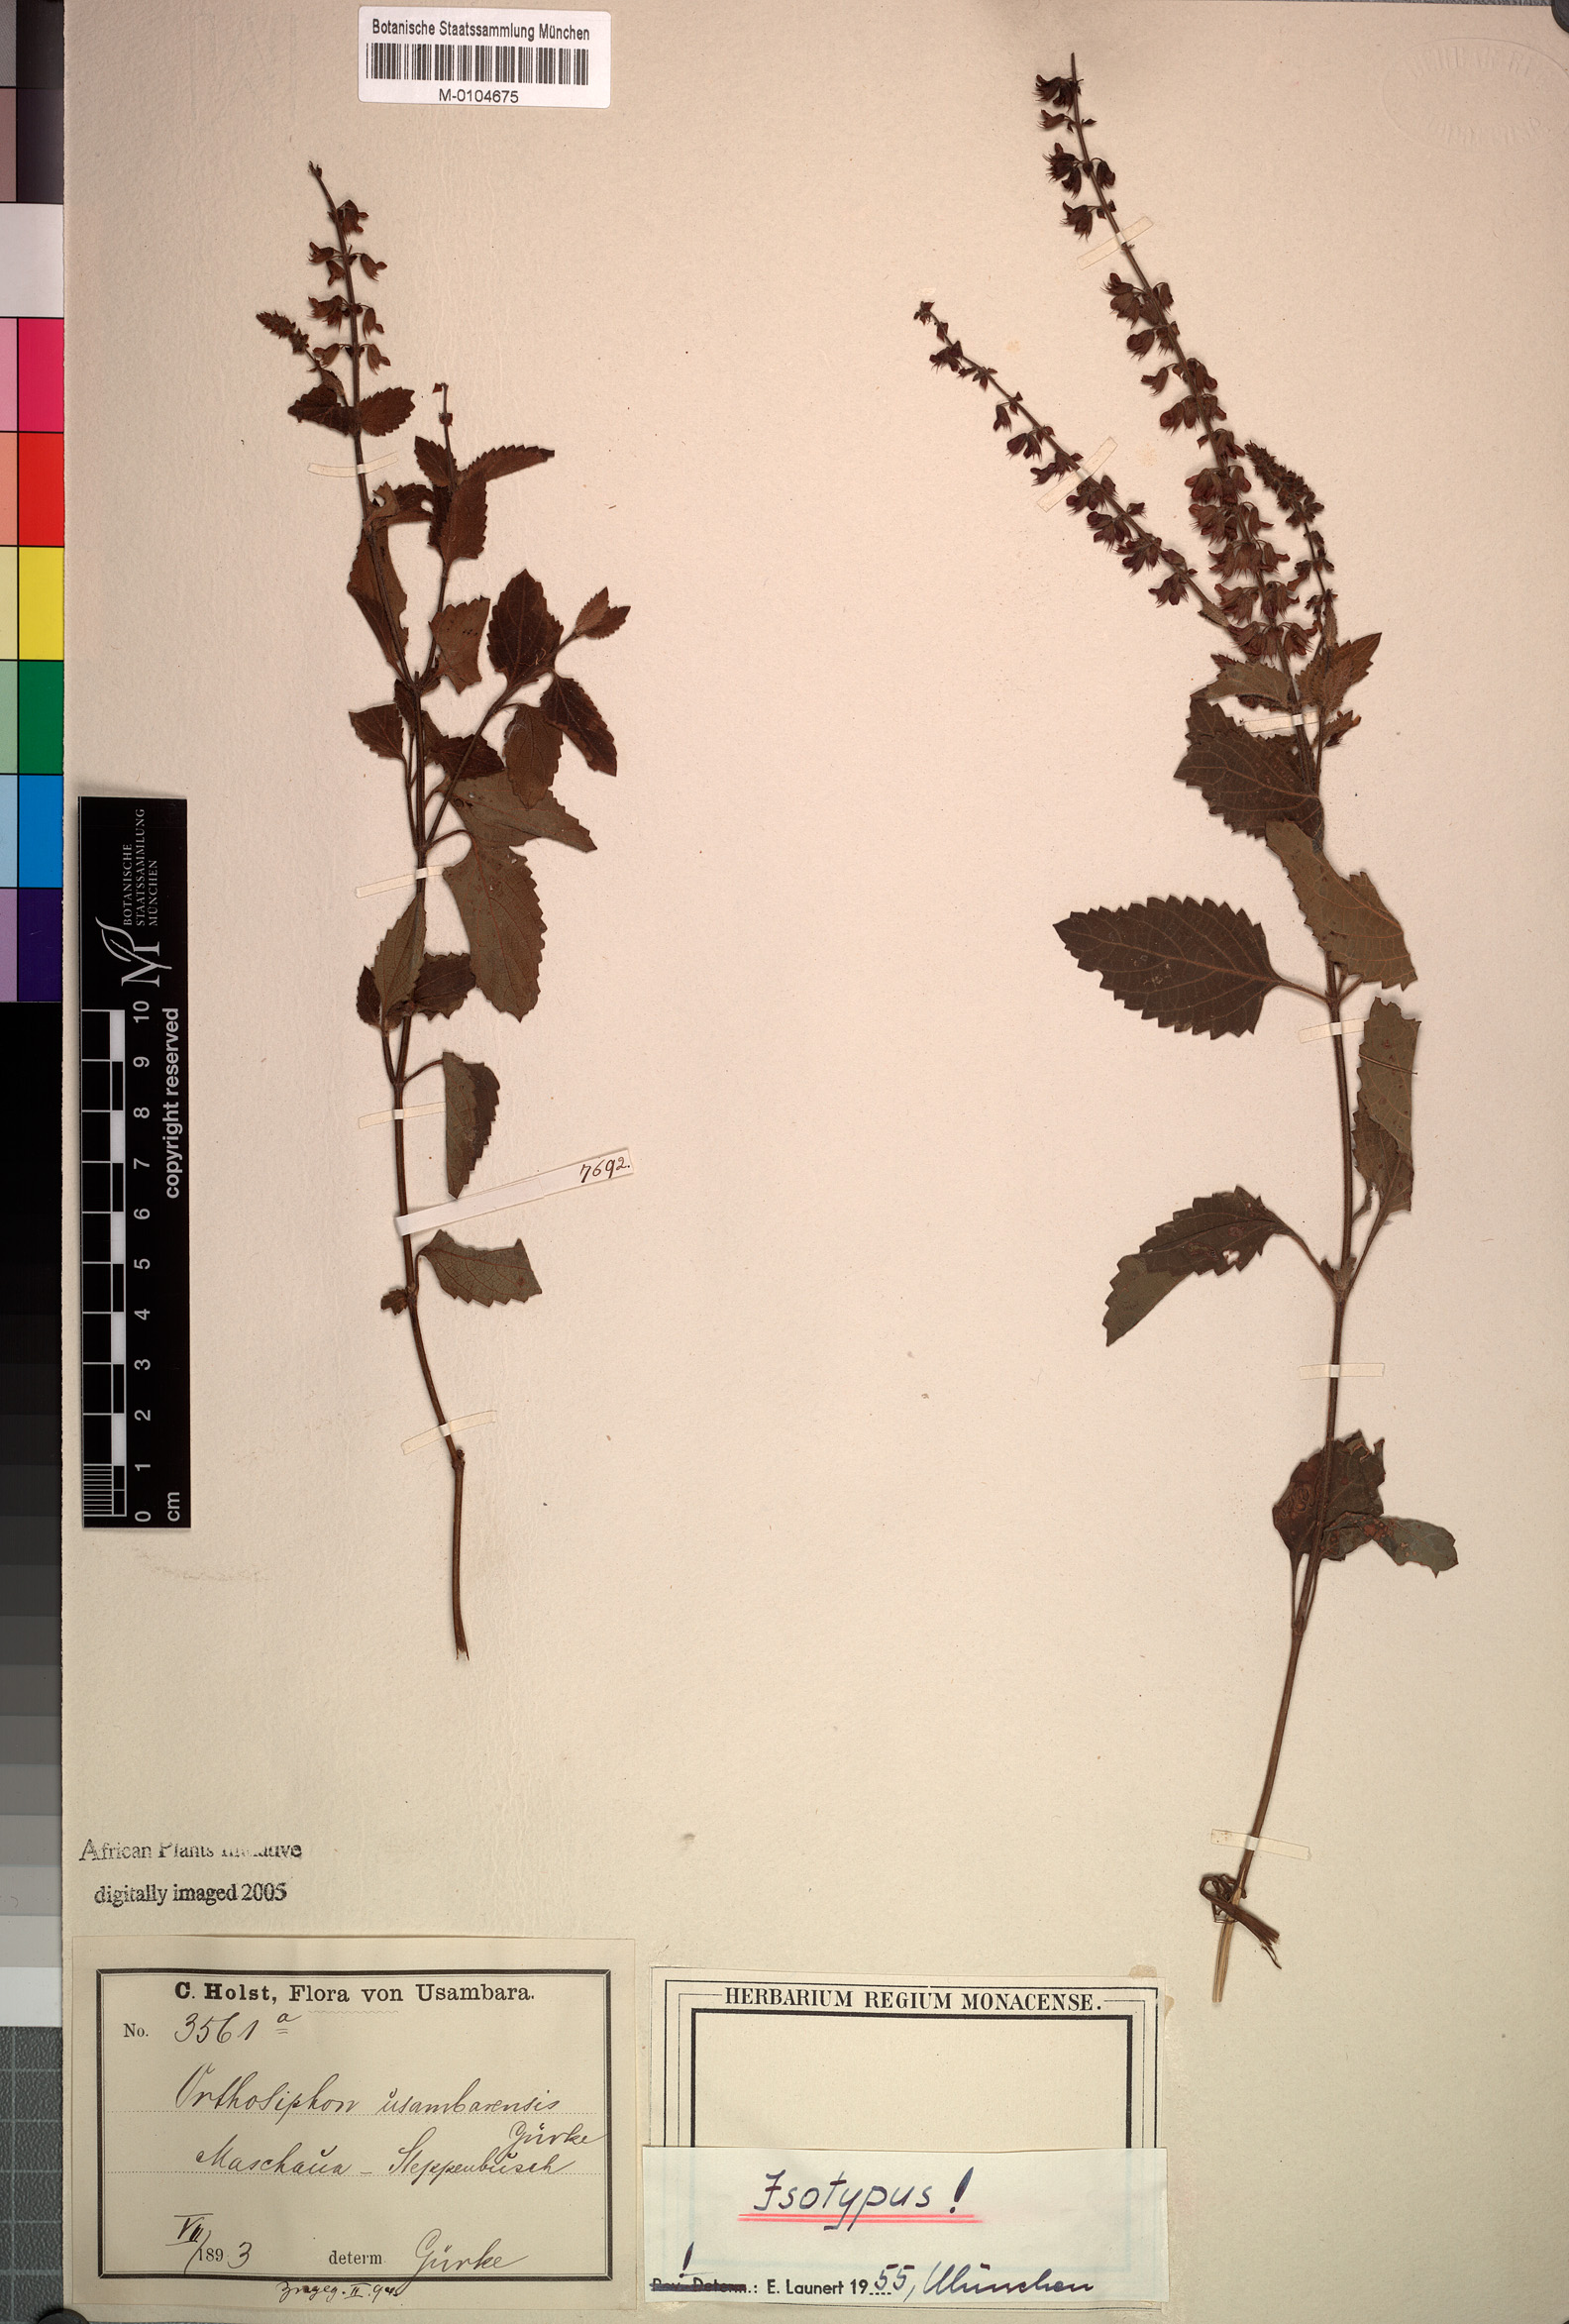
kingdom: Plantae
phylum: Tracheophyta
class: Magnoliopsida
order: Lamiales
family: Lamiaceae
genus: Orthosiphon
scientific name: Orthosiphon thymiflorus
